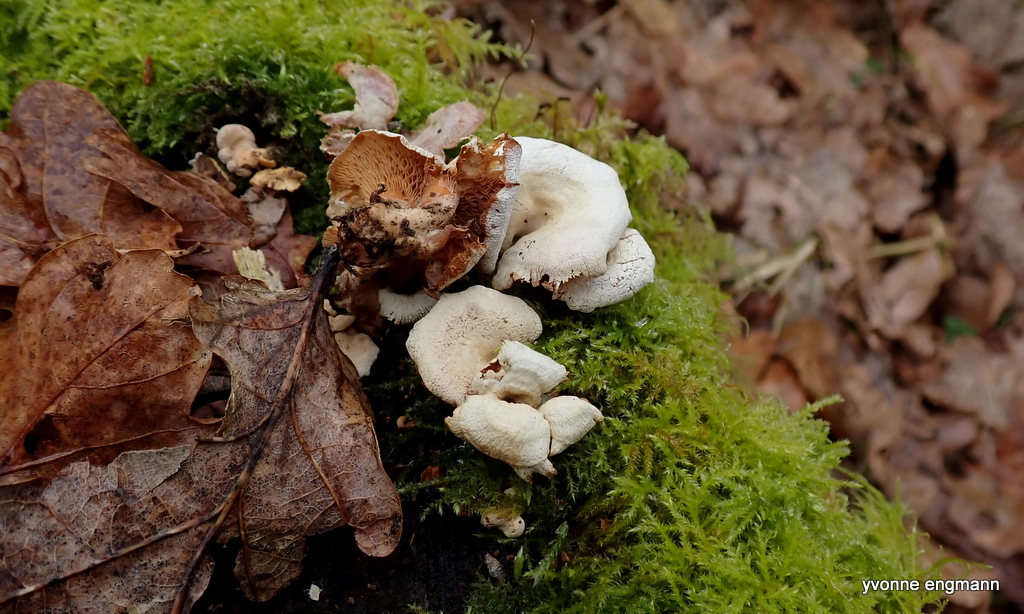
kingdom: Fungi
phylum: Basidiomycota
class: Agaricomycetes
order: Agaricales
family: Mycenaceae
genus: Panellus
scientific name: Panellus stipticus
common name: kliddet epaulethat
